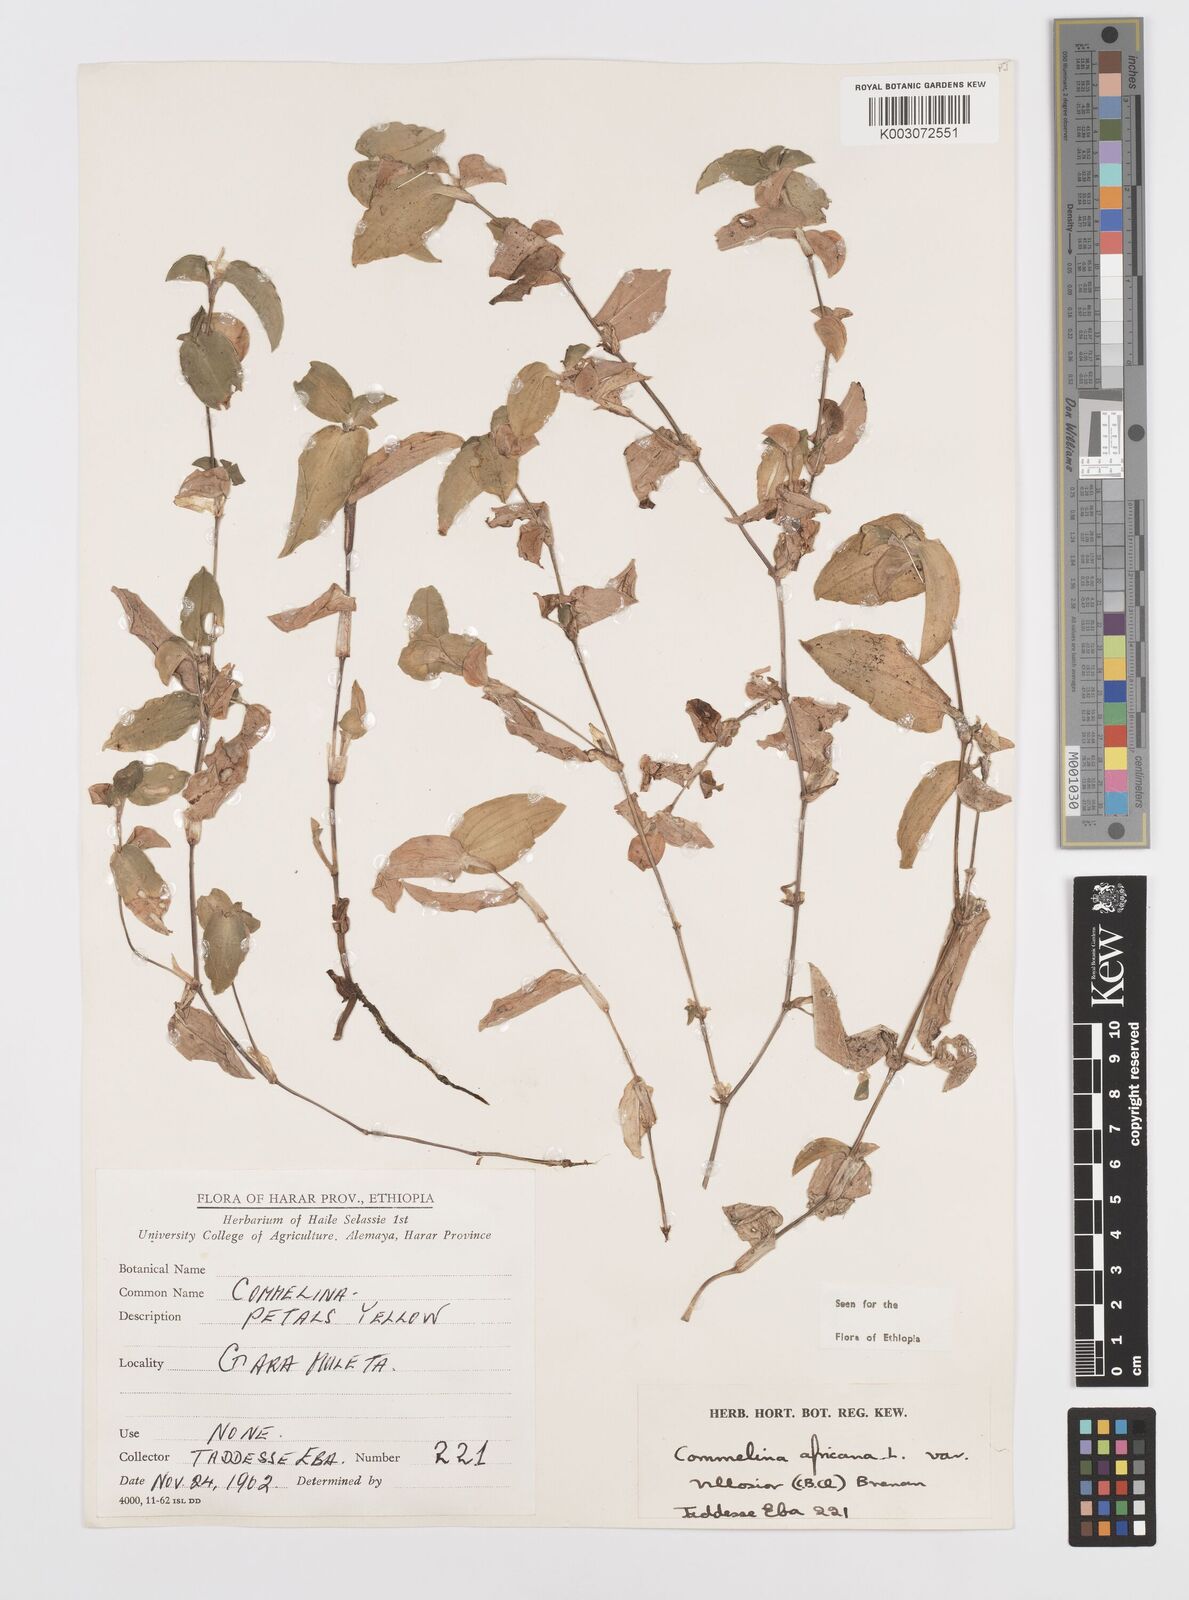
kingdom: Plantae
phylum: Tracheophyta
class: Liliopsida
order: Commelinales
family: Commelinaceae
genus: Commelina
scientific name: Commelina africana
